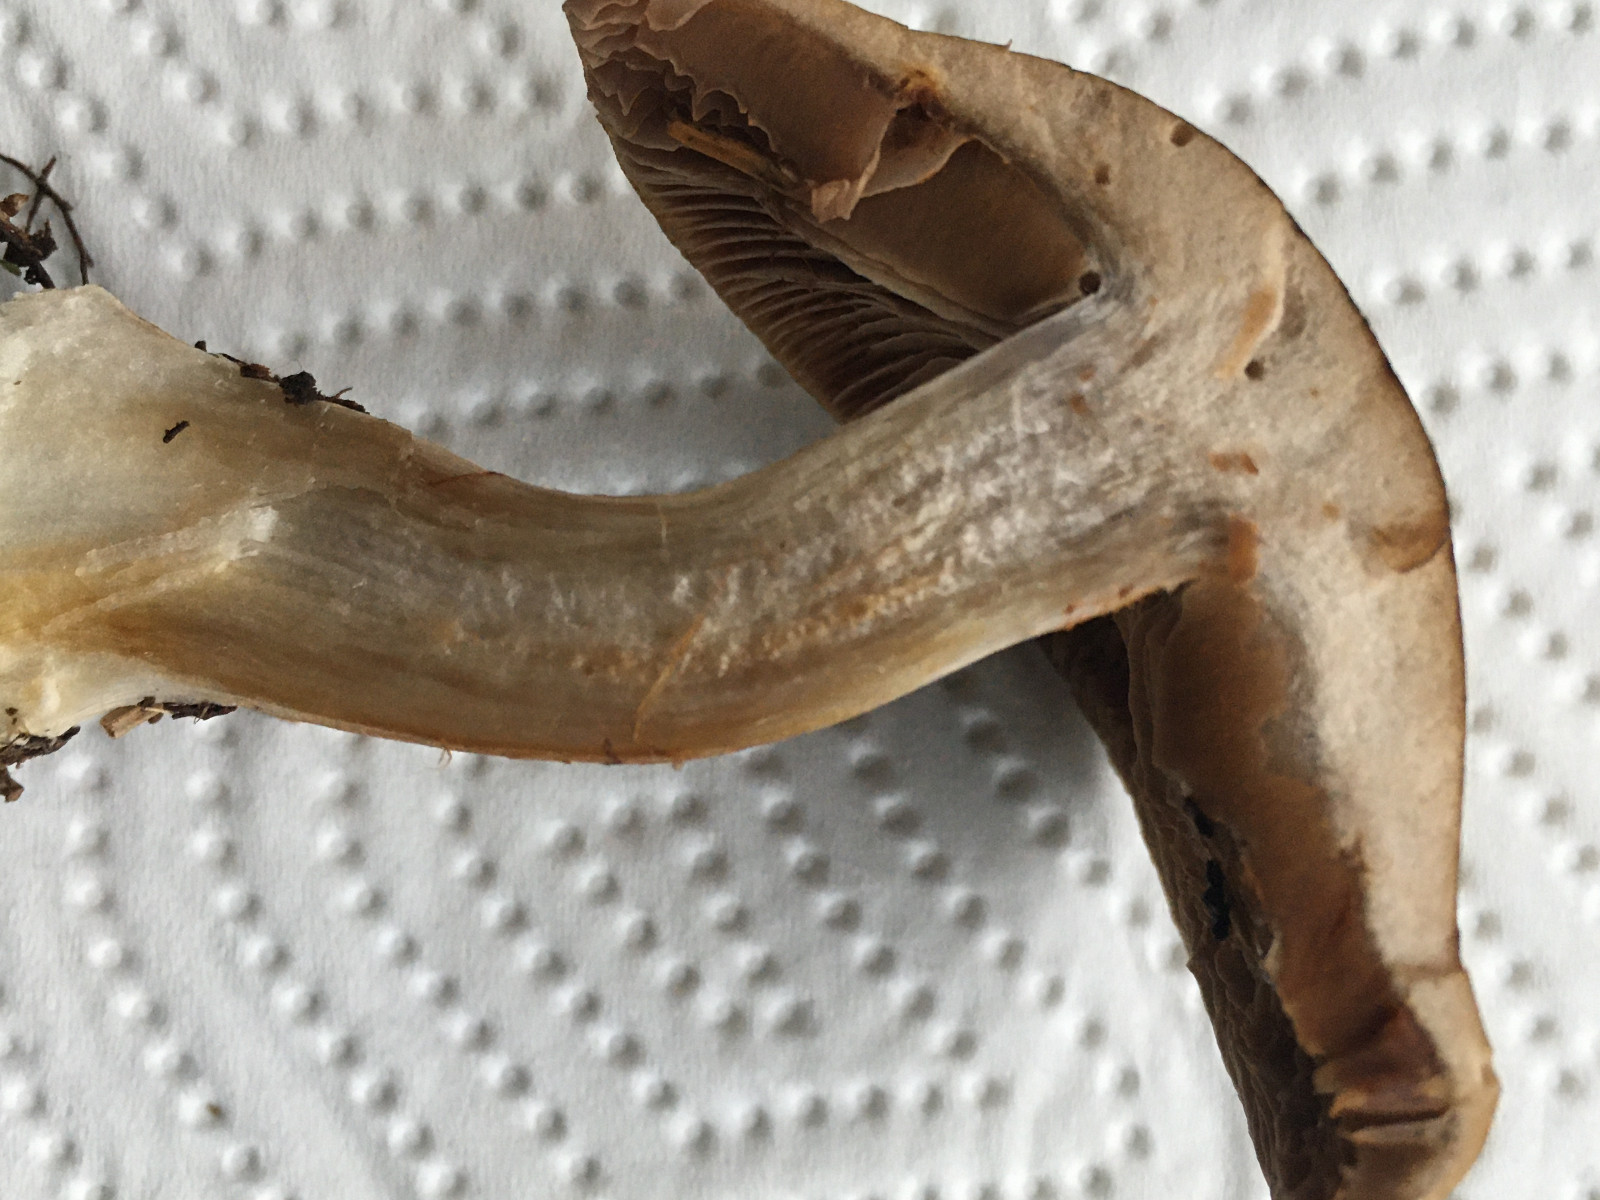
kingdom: Fungi
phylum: Basidiomycota
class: Agaricomycetes
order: Agaricales
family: Cortinariaceae
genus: Cortinarius
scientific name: Cortinarius
